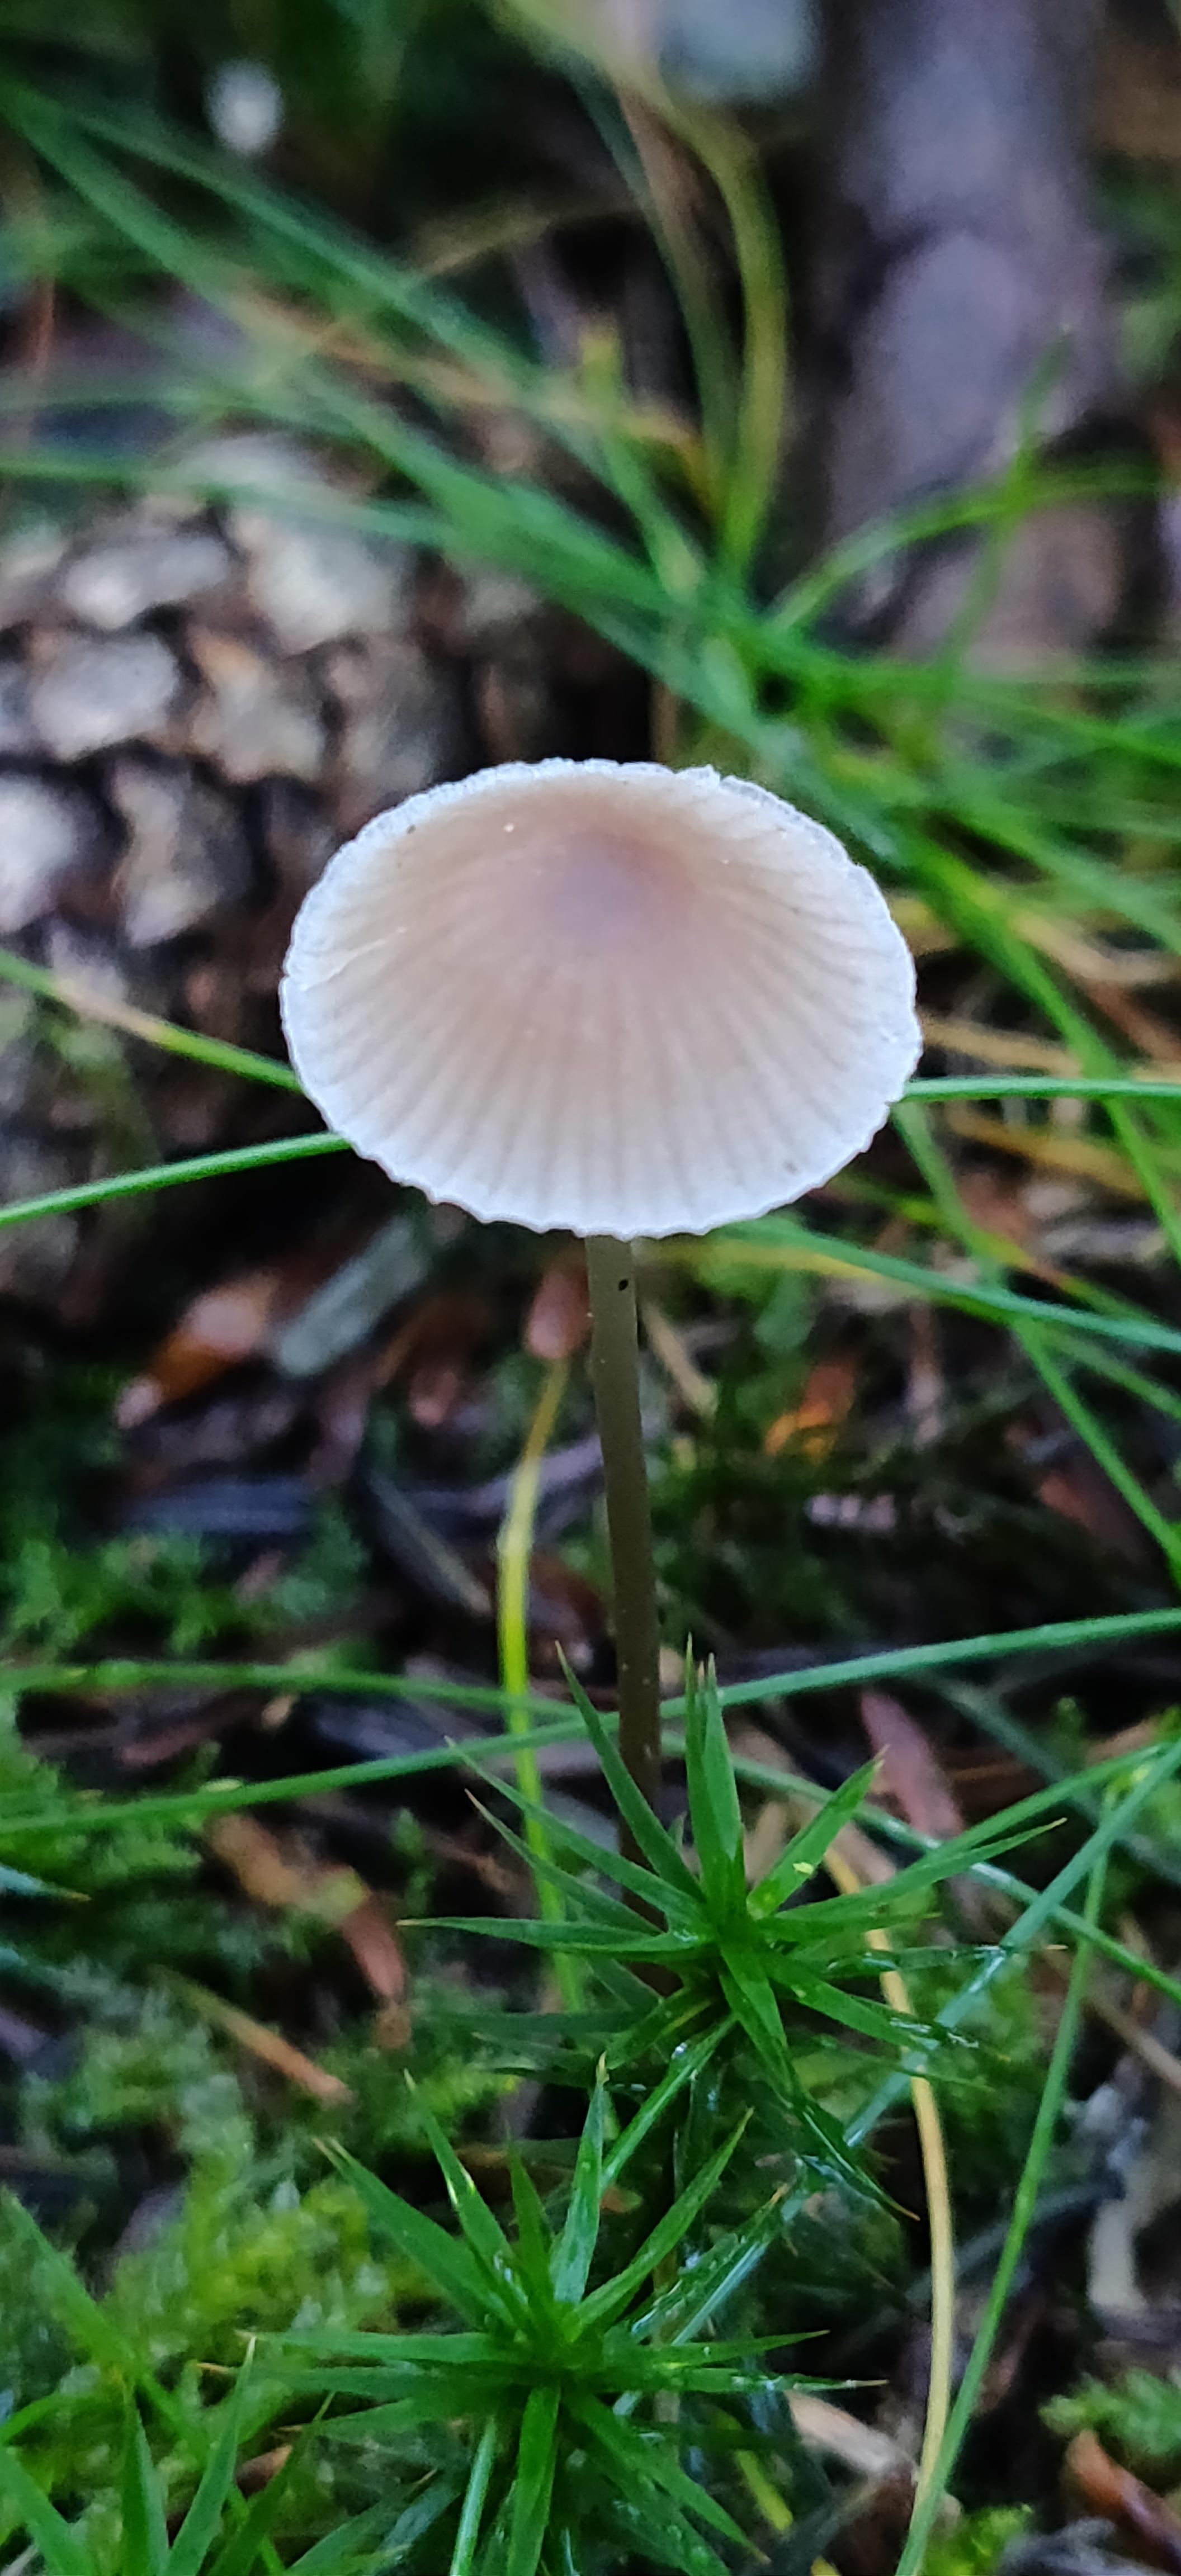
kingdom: Fungi
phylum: Basidiomycota
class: Agaricomycetes
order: Agaricales
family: Mycenaceae
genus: Mycena
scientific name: Mycena metata
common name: rødlig huesvamp
